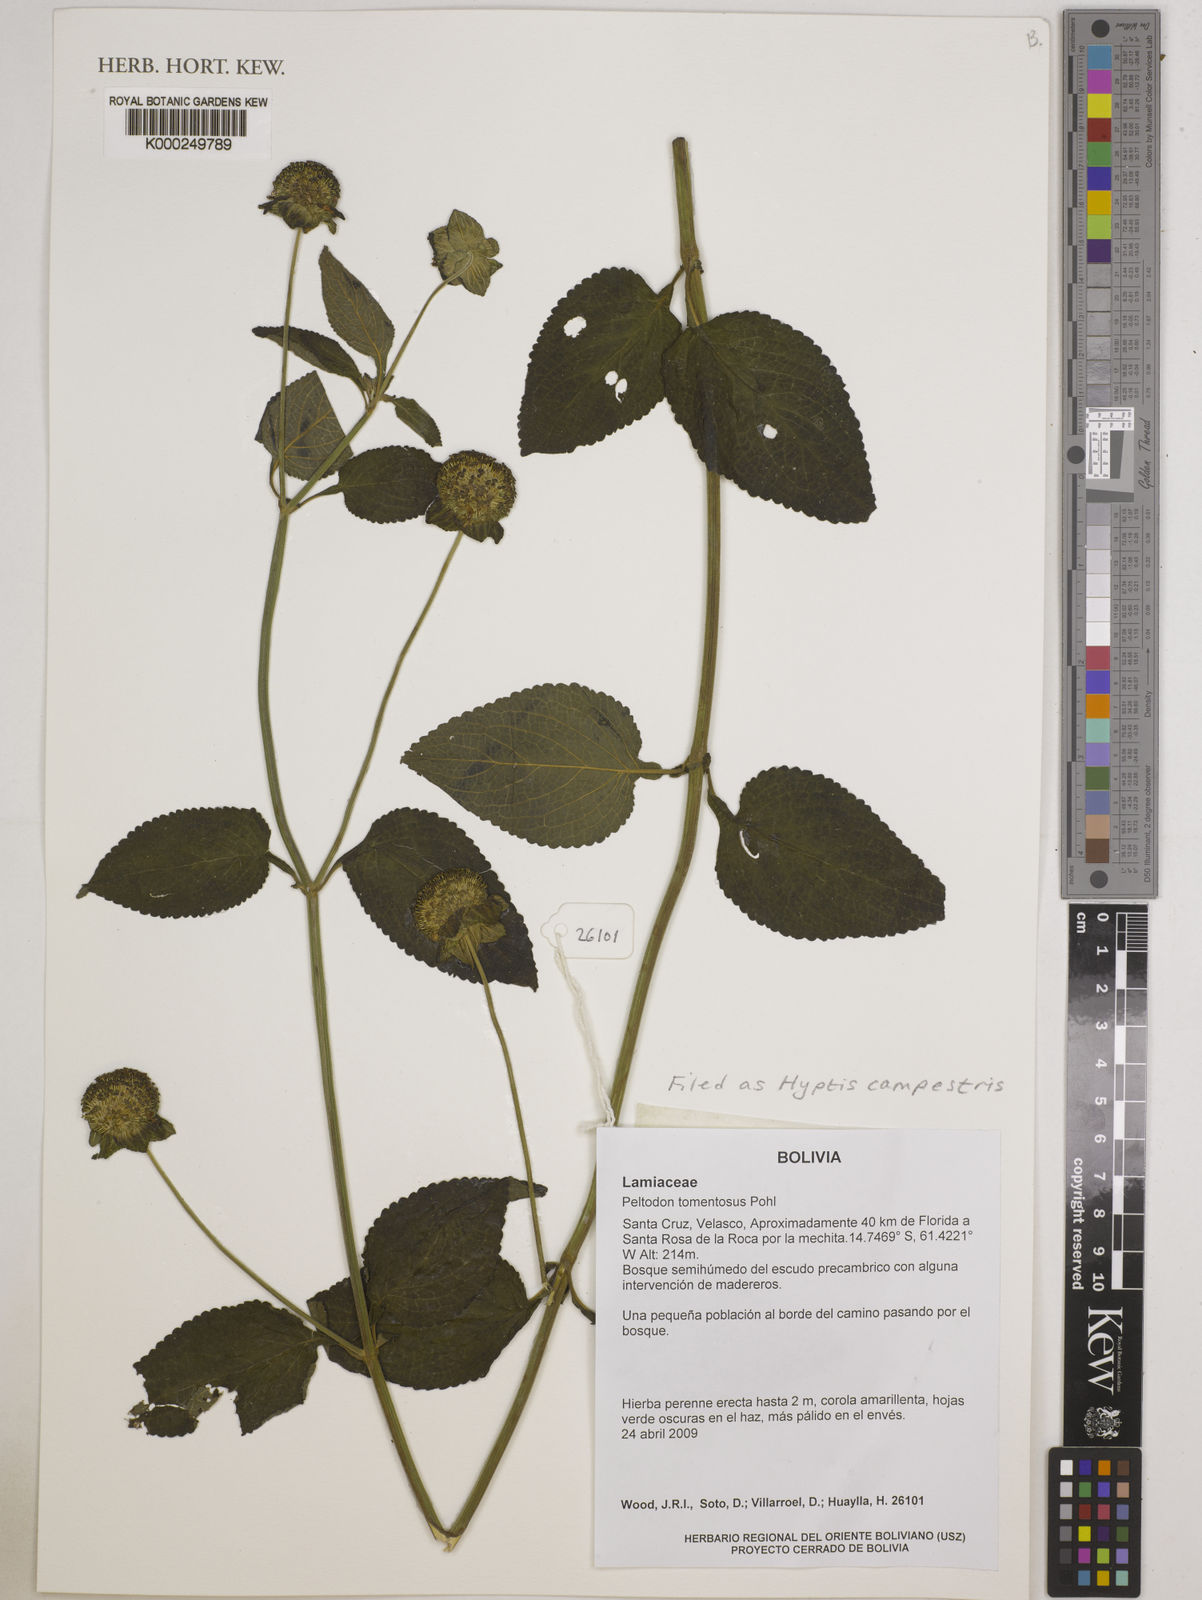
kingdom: Plantae
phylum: Tracheophyta
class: Magnoliopsida
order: Lamiales
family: Lamiaceae
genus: Hyptis
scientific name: Hyptis campestris
